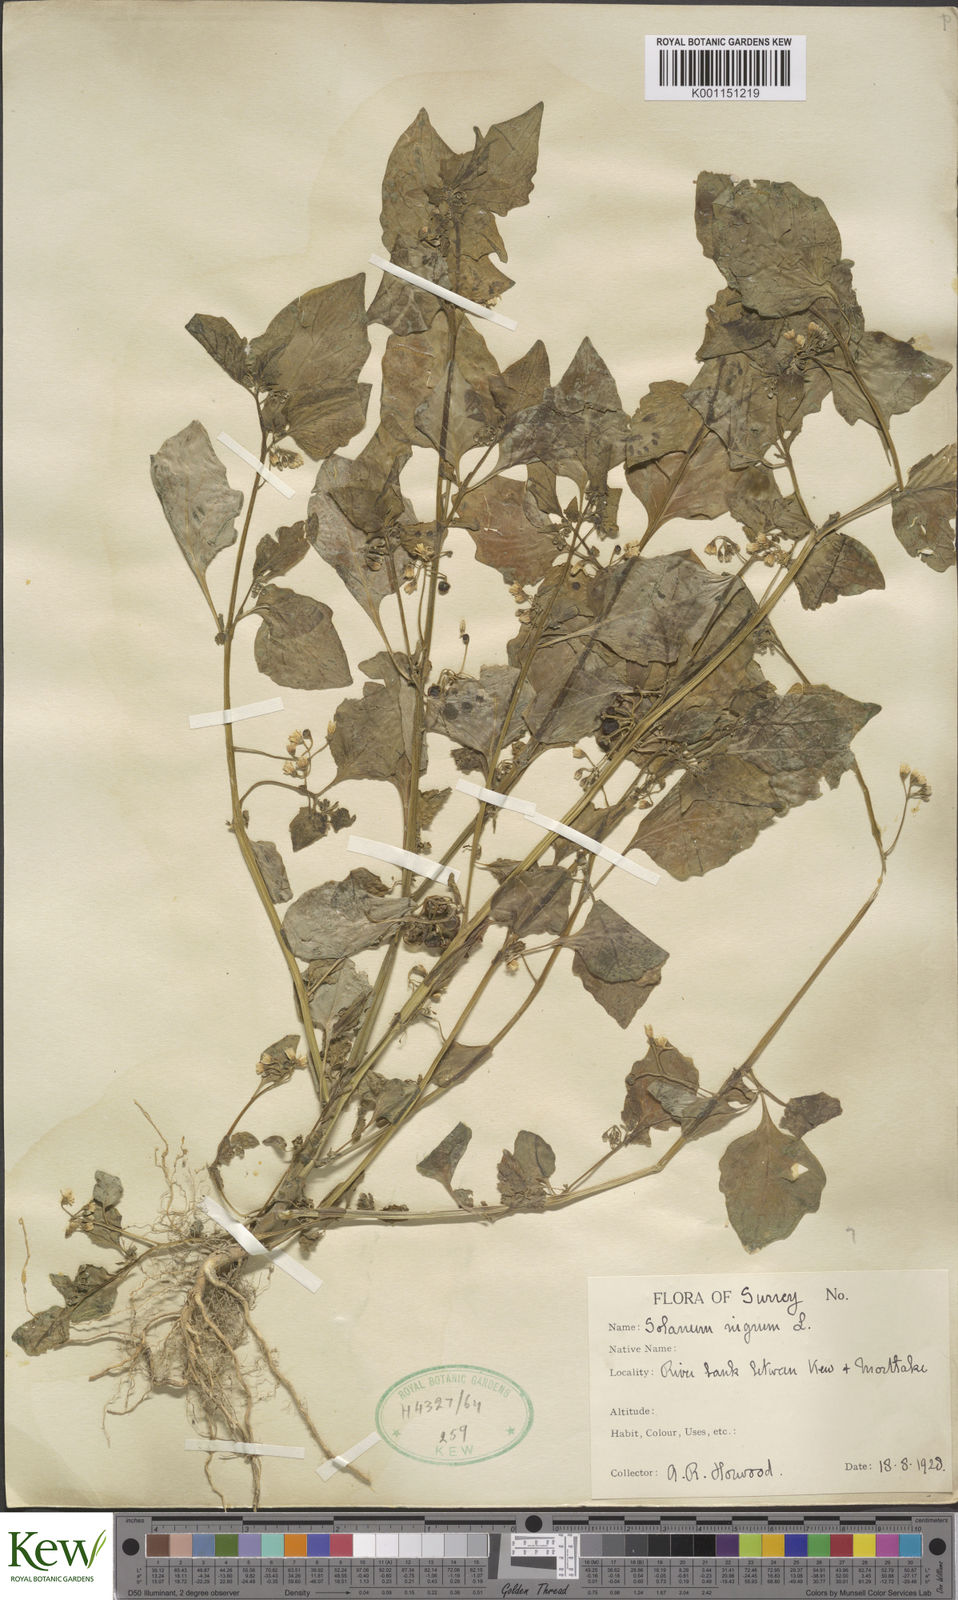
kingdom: Plantae
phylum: Tracheophyta
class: Magnoliopsida
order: Solanales
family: Solanaceae
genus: Solanum
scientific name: Solanum nigrum
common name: Black nightshade
